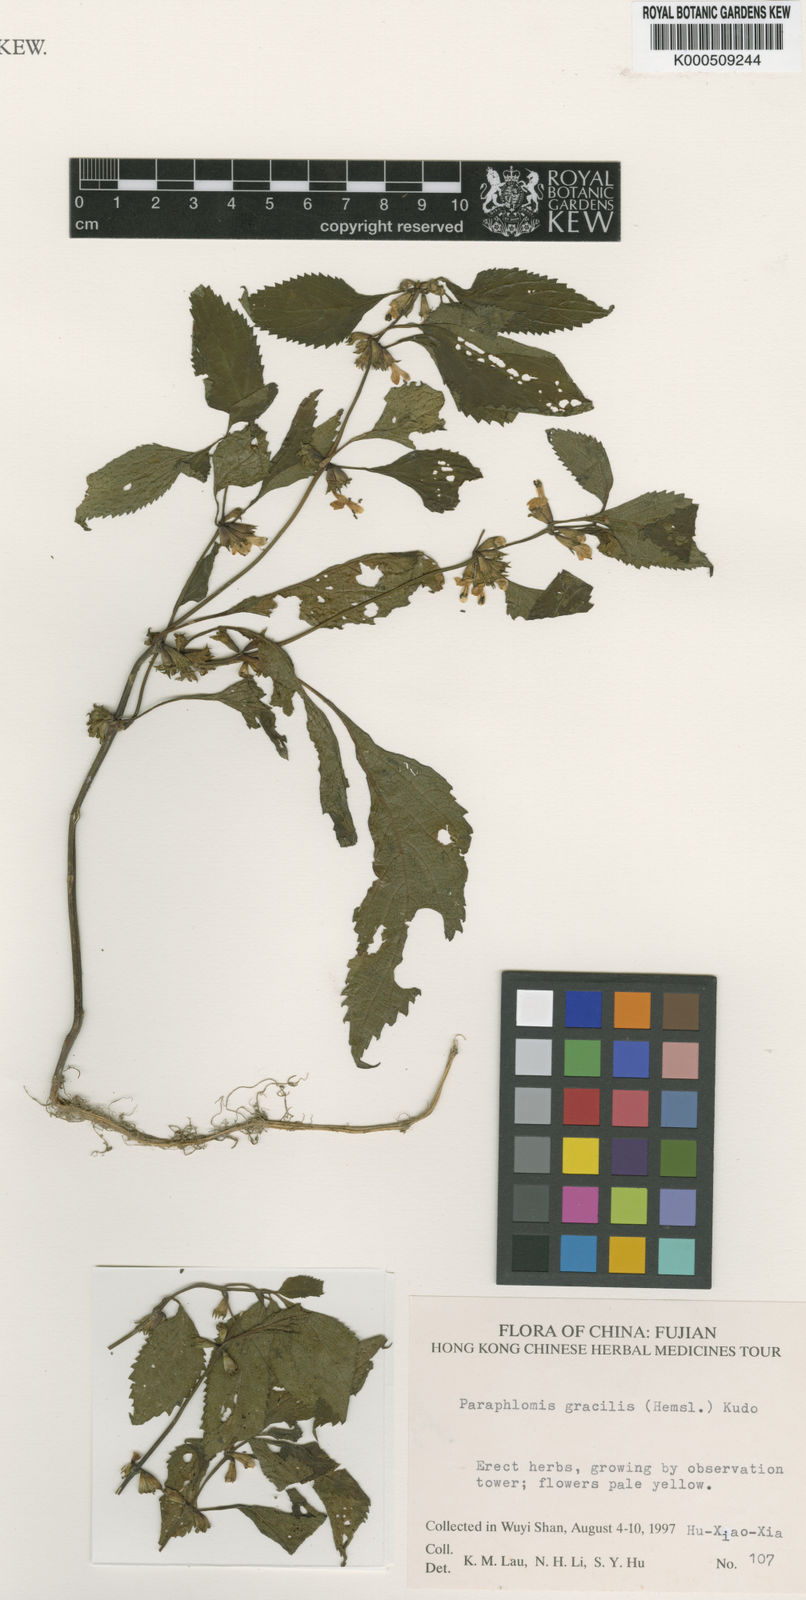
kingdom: Plantae
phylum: Tracheophyta
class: Magnoliopsida
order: Lamiales
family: Lamiaceae
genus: Paraphlomis
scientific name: Paraphlomis formosana
